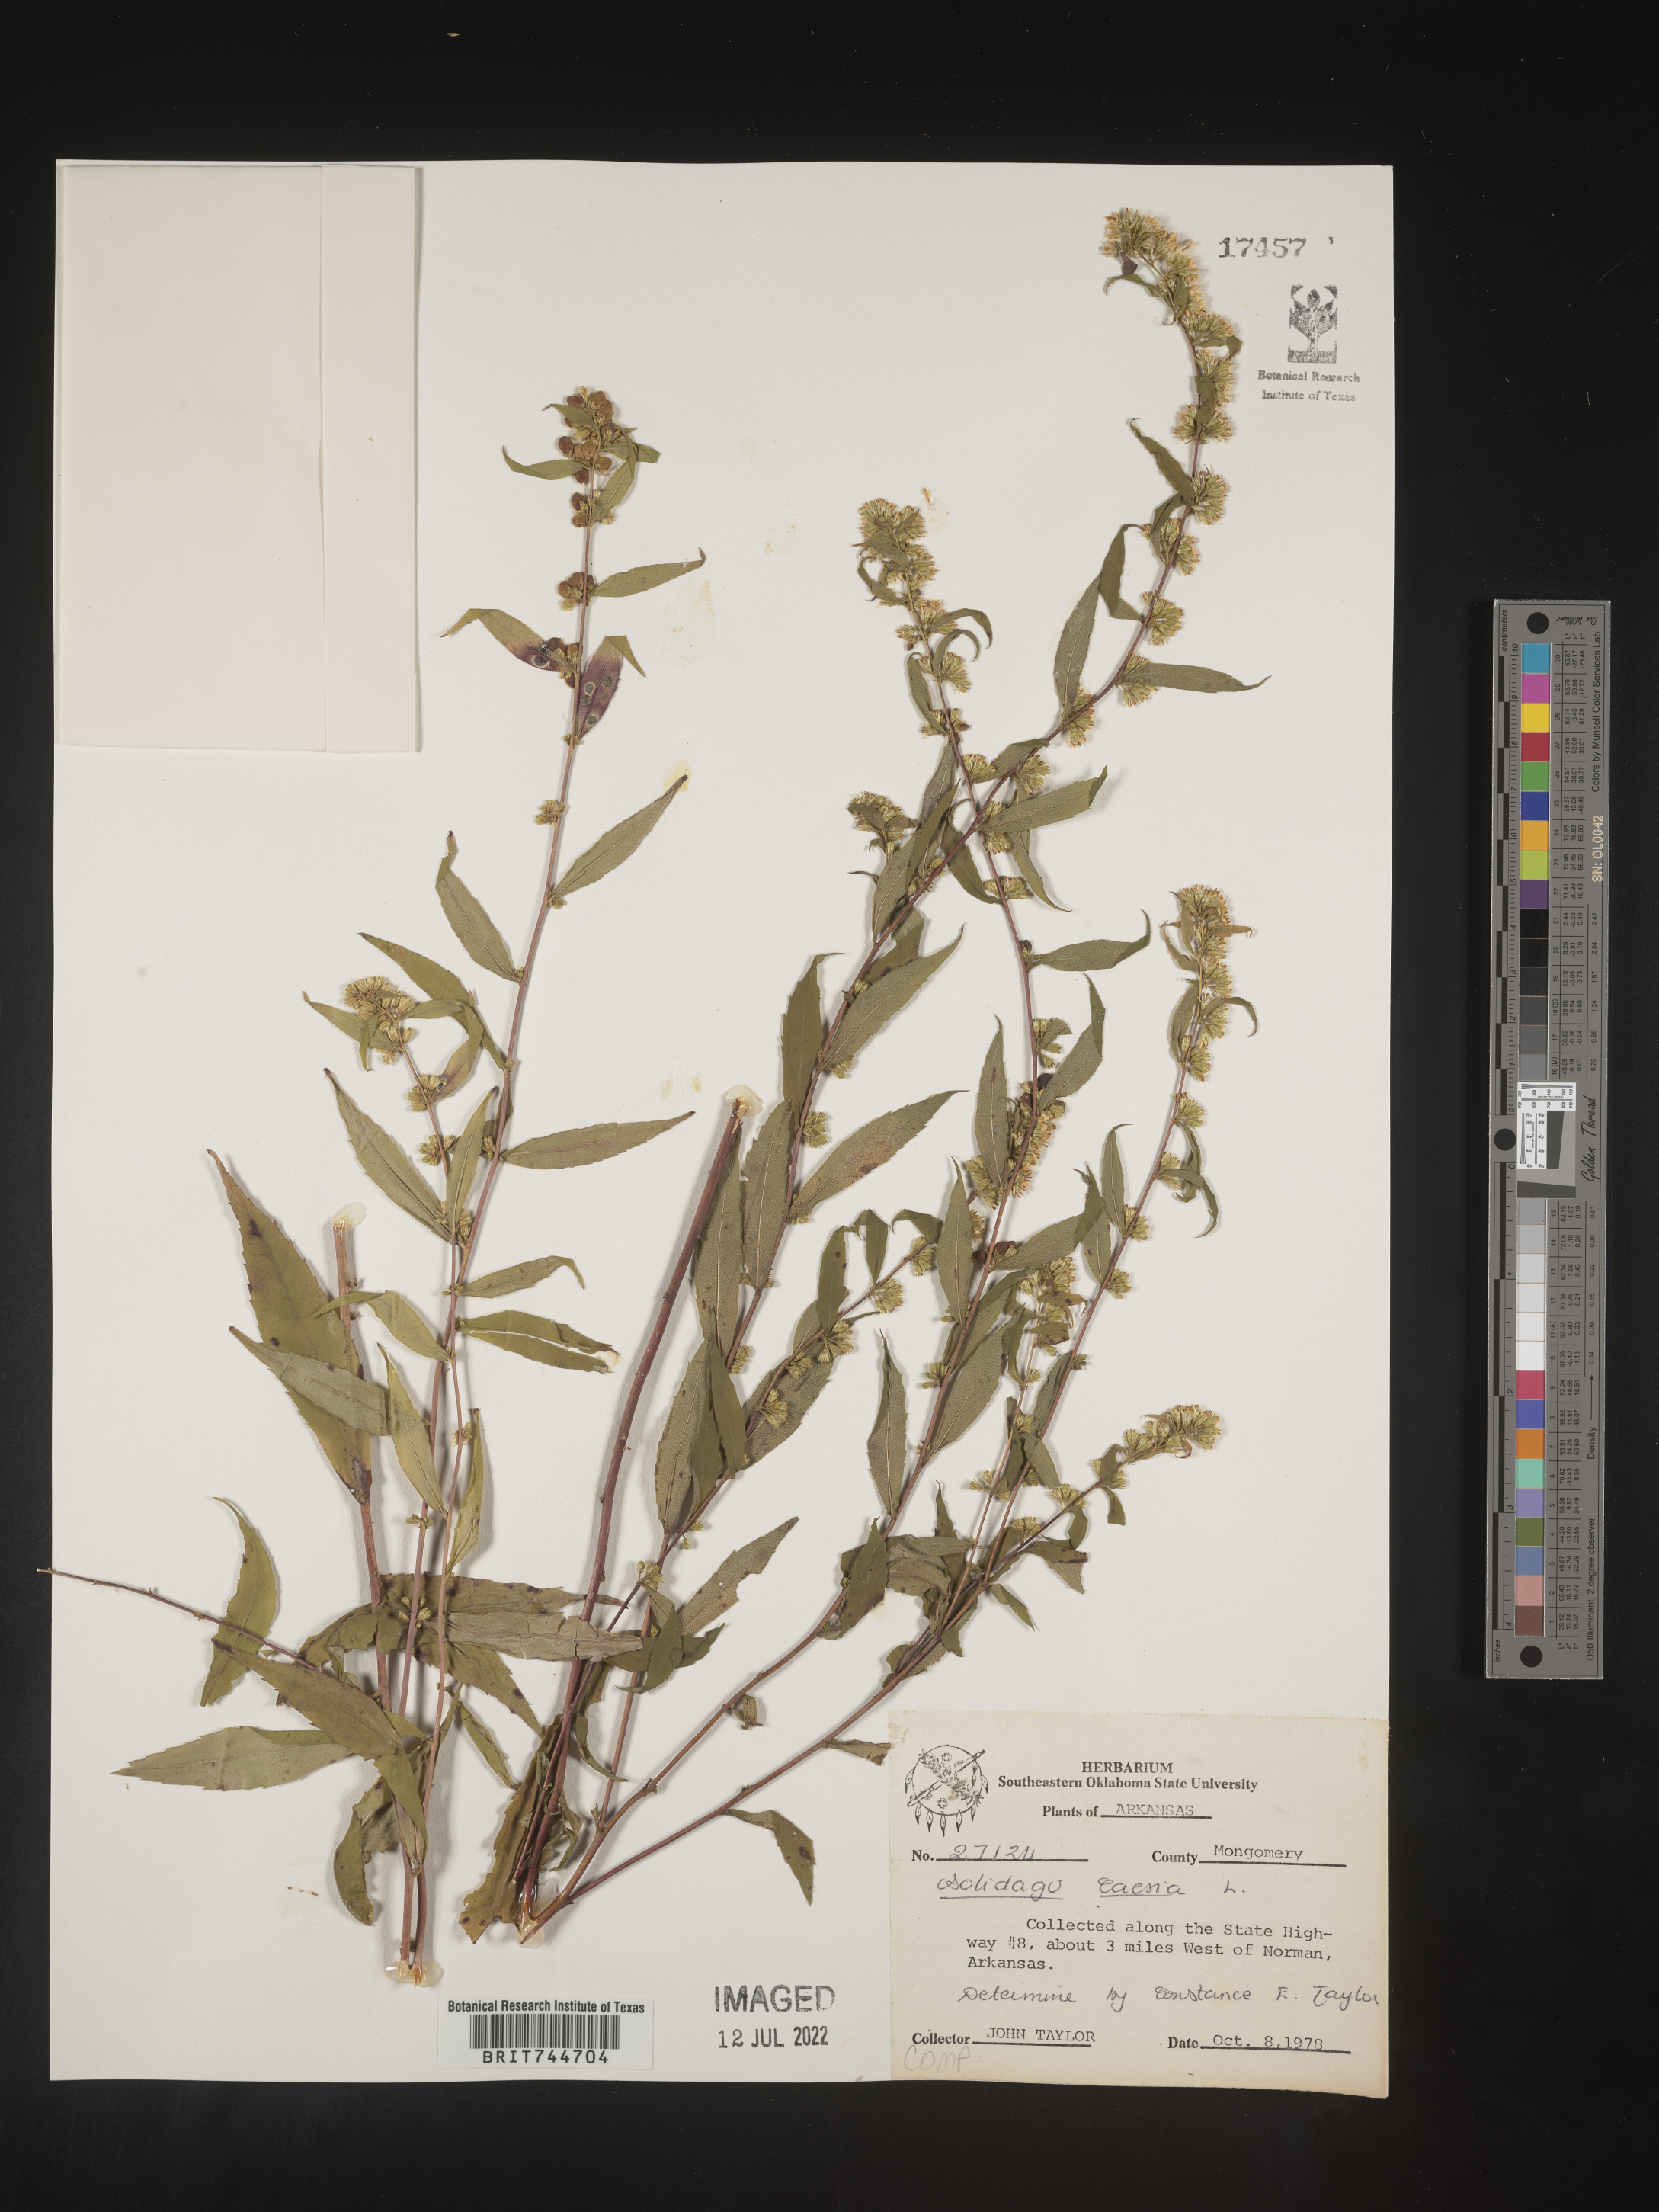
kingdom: Plantae
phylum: Tracheophyta
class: Magnoliopsida
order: Asterales
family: Asteraceae
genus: Solidago
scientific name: Solidago caesia
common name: Woodland goldenrod
